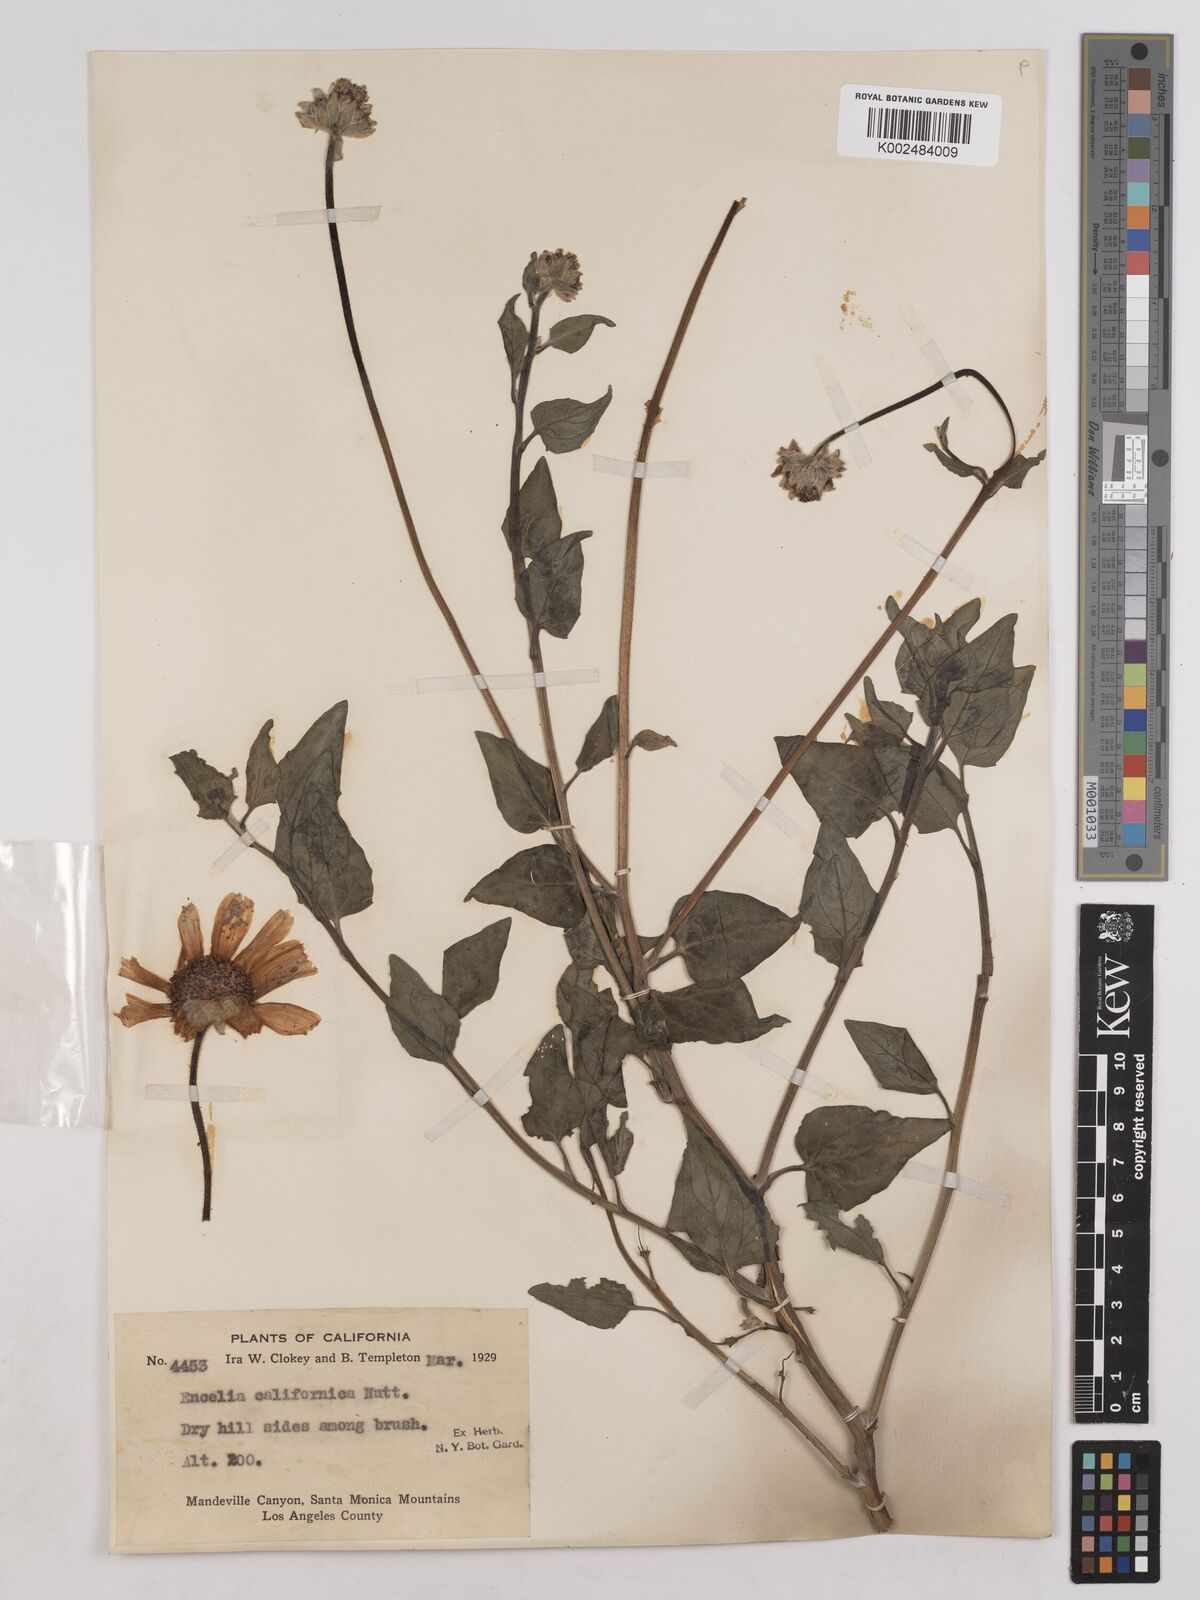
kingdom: Plantae
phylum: Tracheophyta
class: Magnoliopsida
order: Asterales
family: Asteraceae
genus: Encelia
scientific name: Encelia californica
